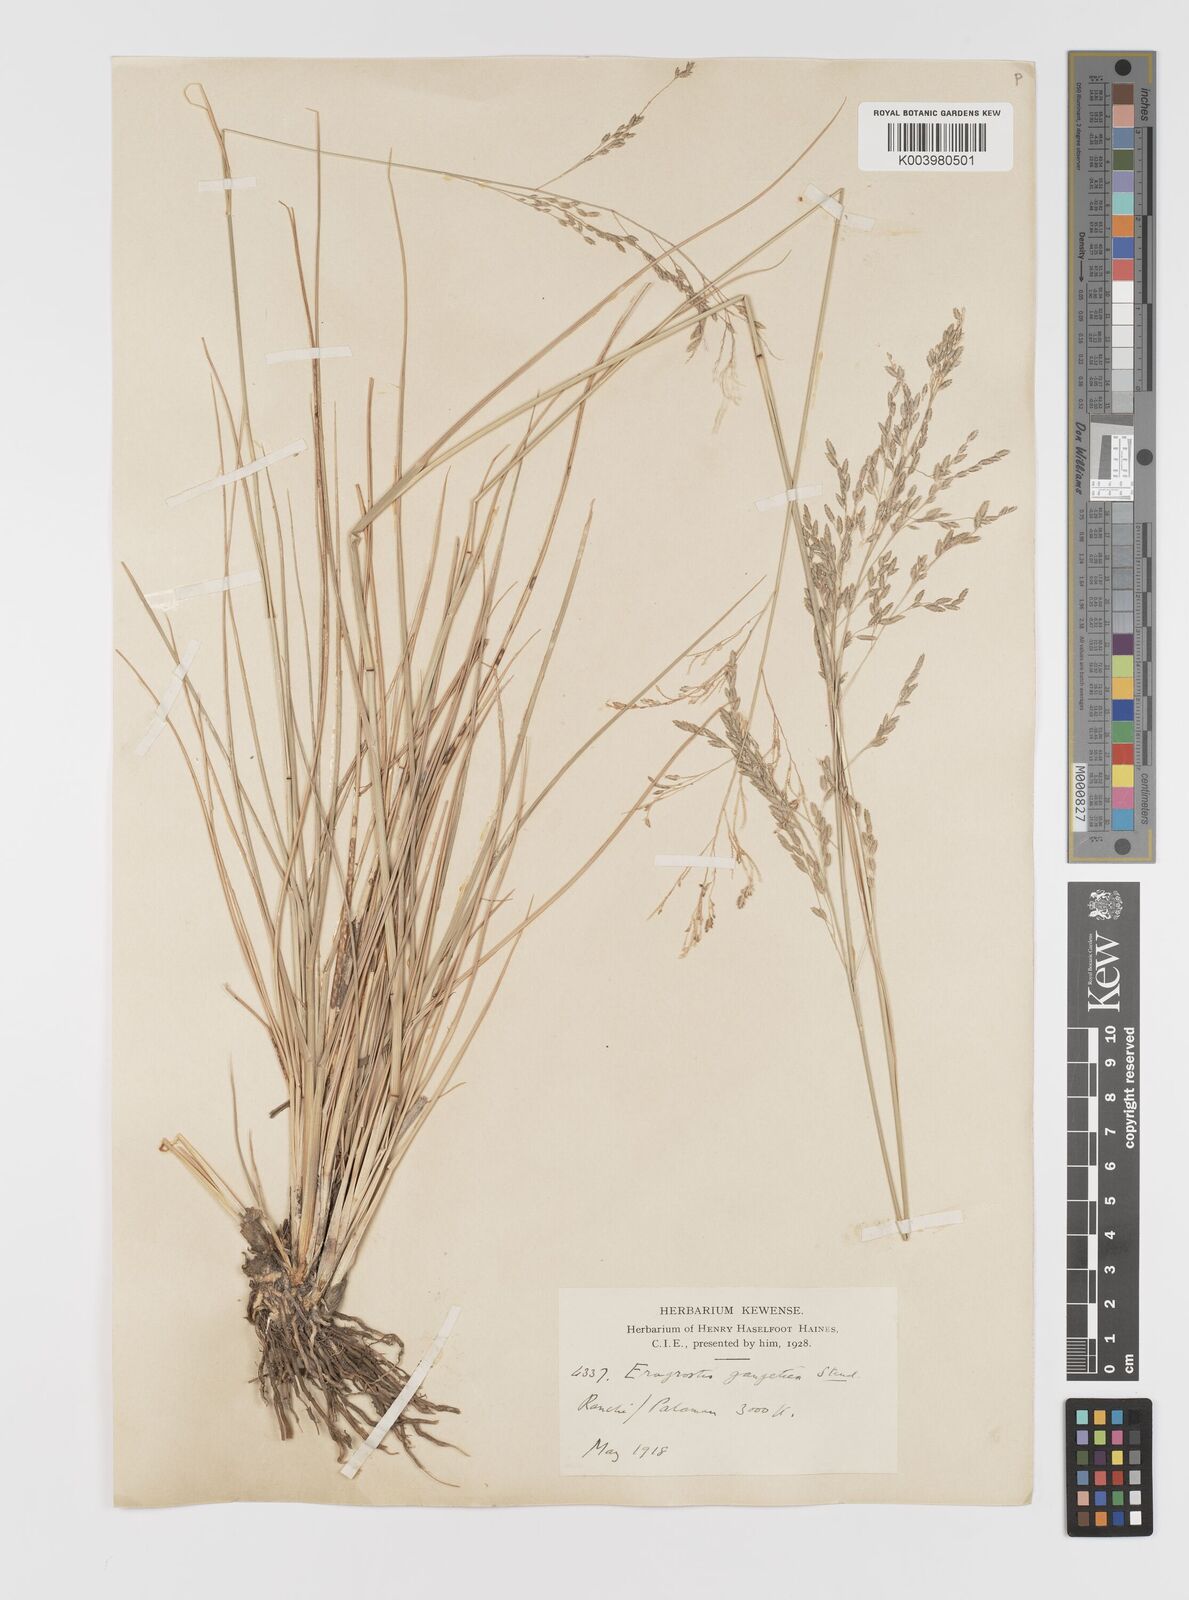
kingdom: Plantae
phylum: Tracheophyta
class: Liliopsida
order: Poales
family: Poaceae
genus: Eragrostis
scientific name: Eragrostis
